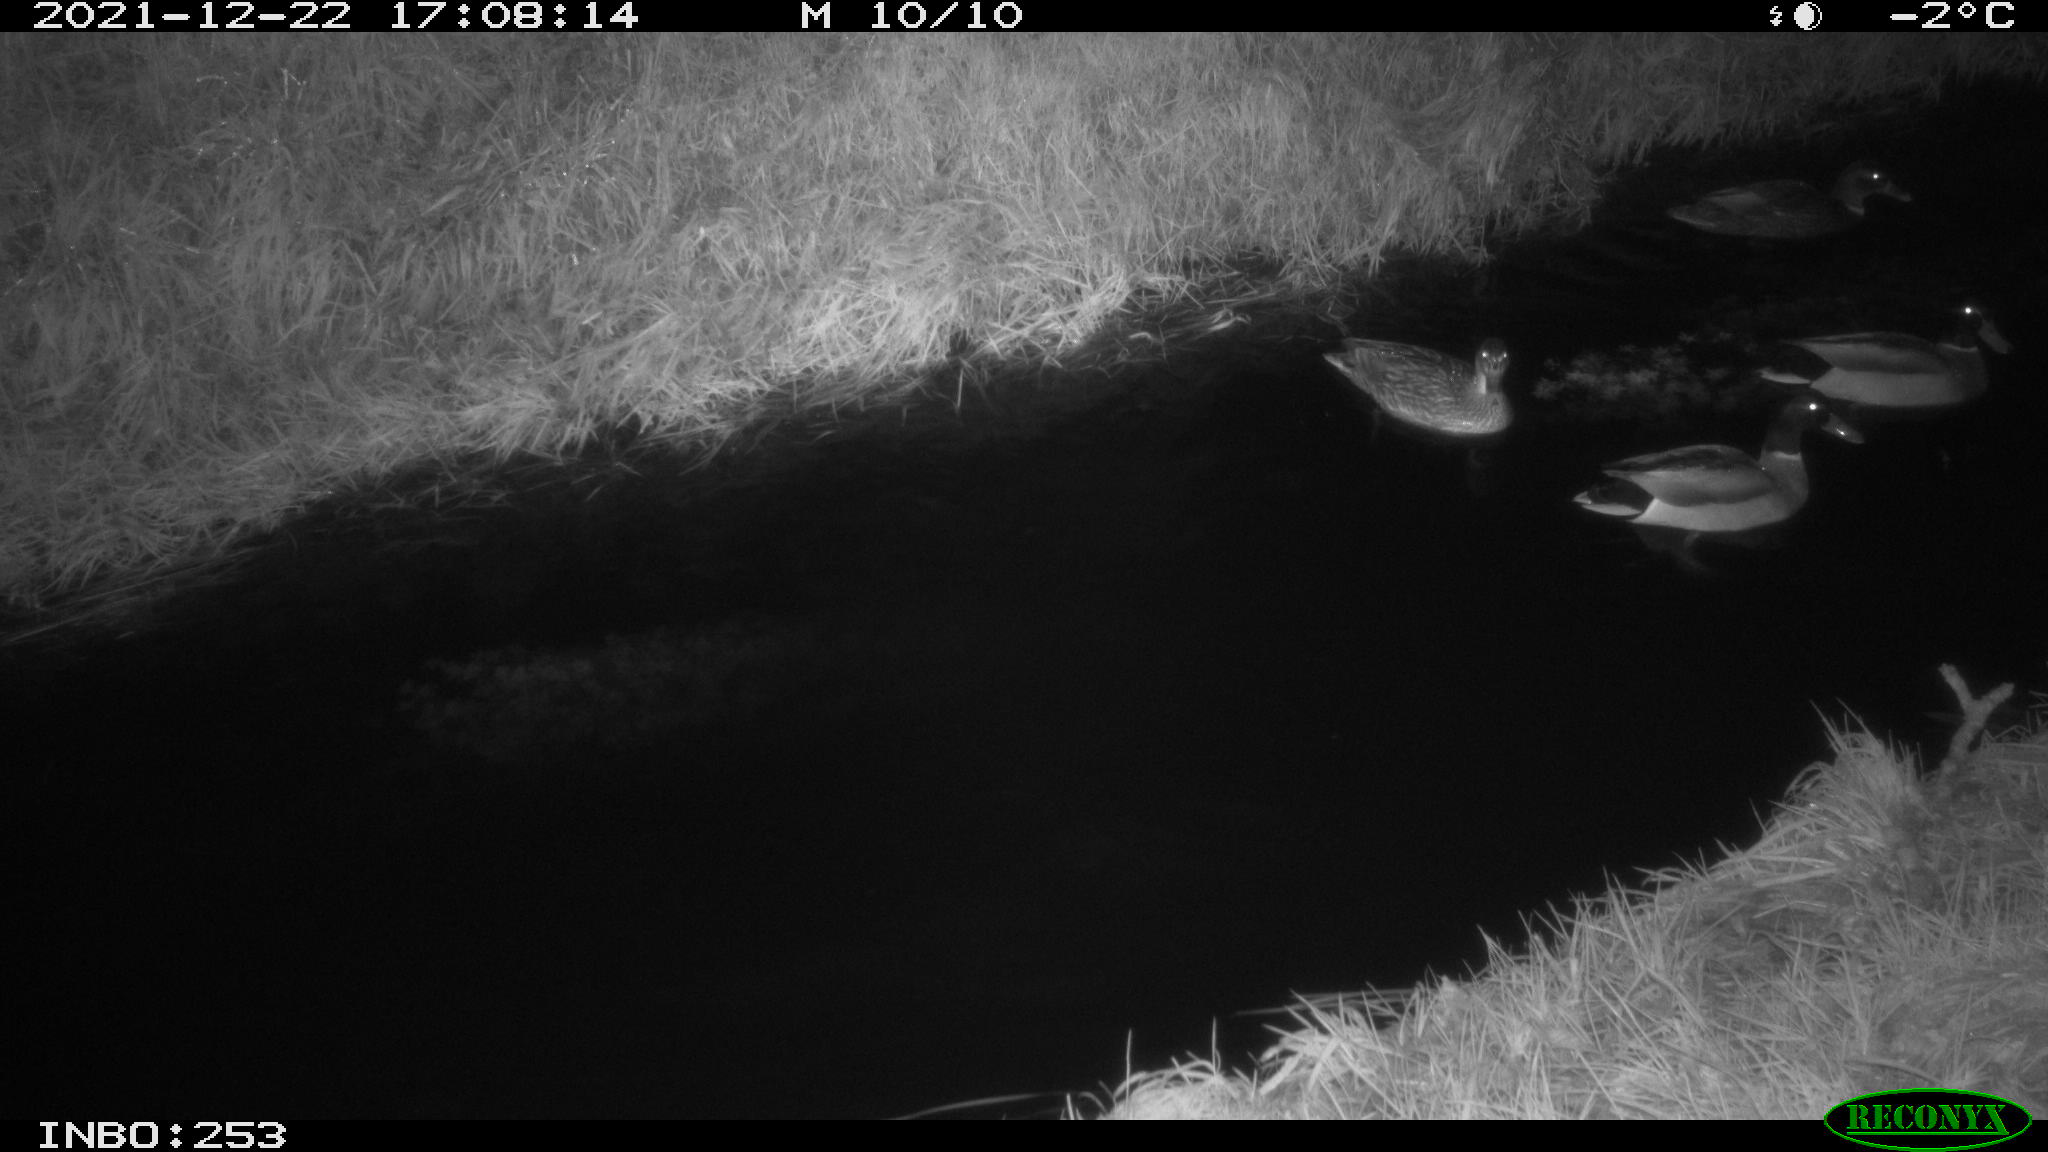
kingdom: Animalia
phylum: Chordata
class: Aves
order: Anseriformes
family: Anatidae
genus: Anas
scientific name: Anas
